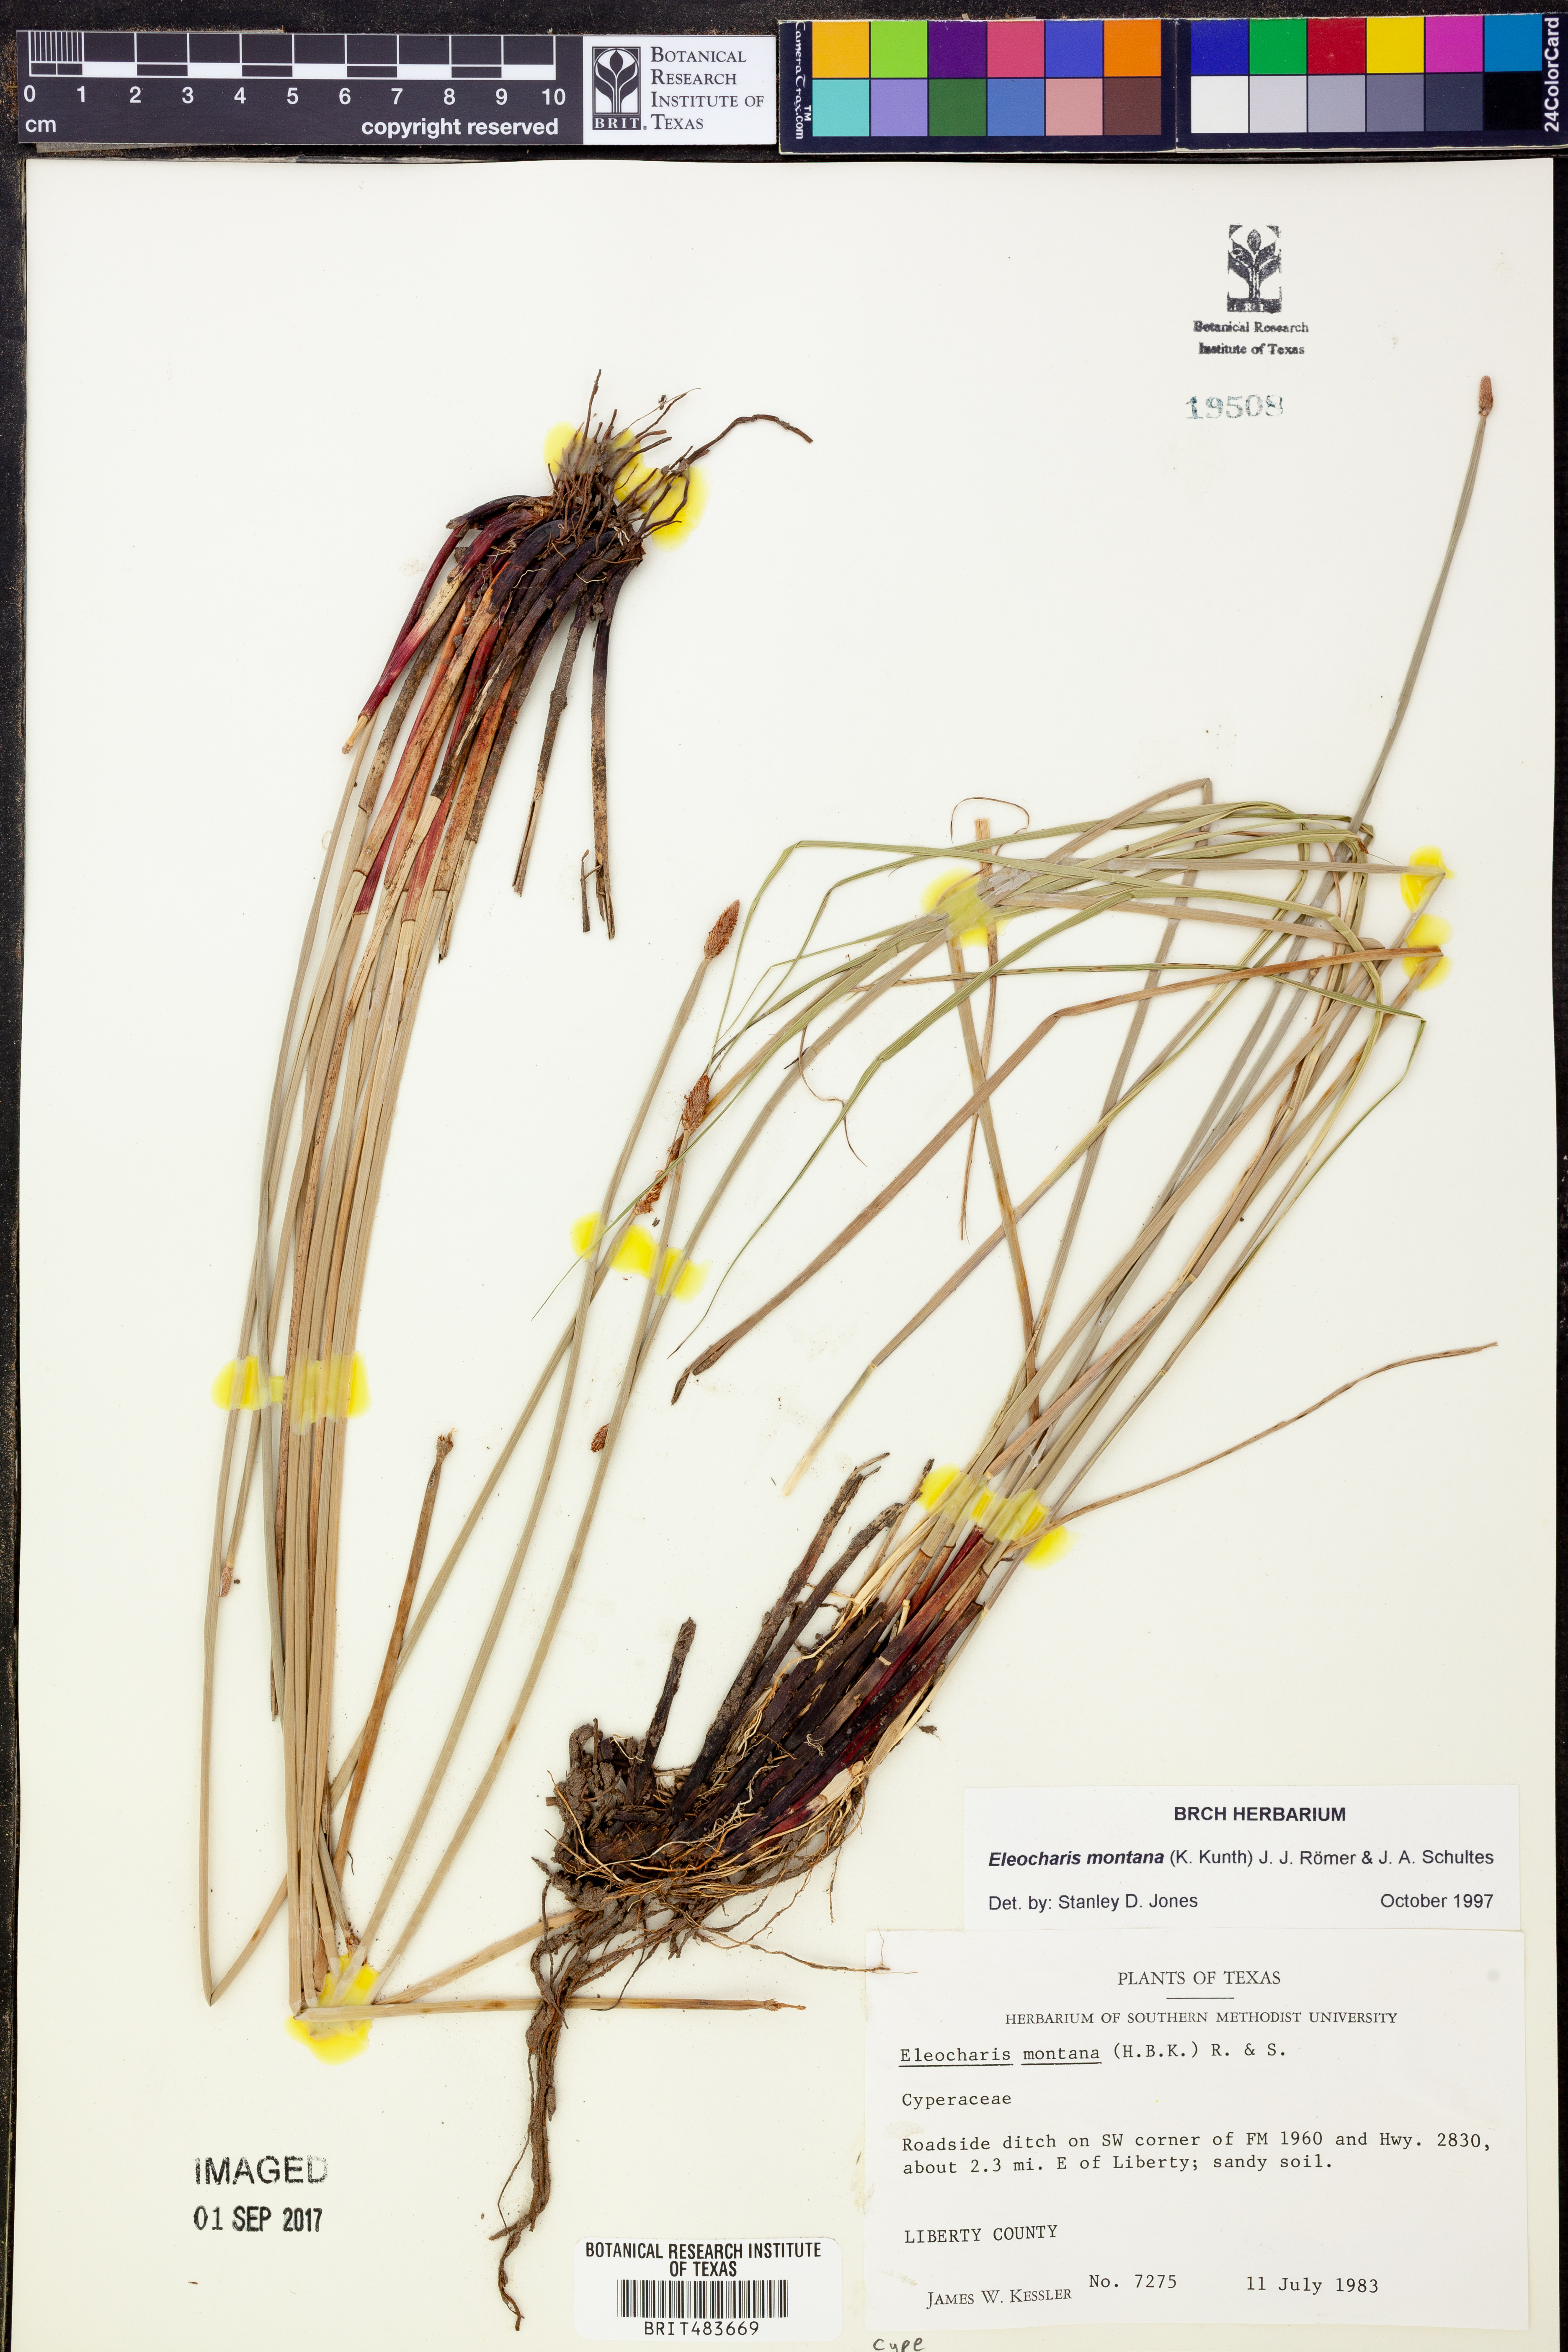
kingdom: Plantae
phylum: Tracheophyta
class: Liliopsida
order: Poales
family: Cyperaceae
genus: Eleocharis
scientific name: Eleocharis montana
